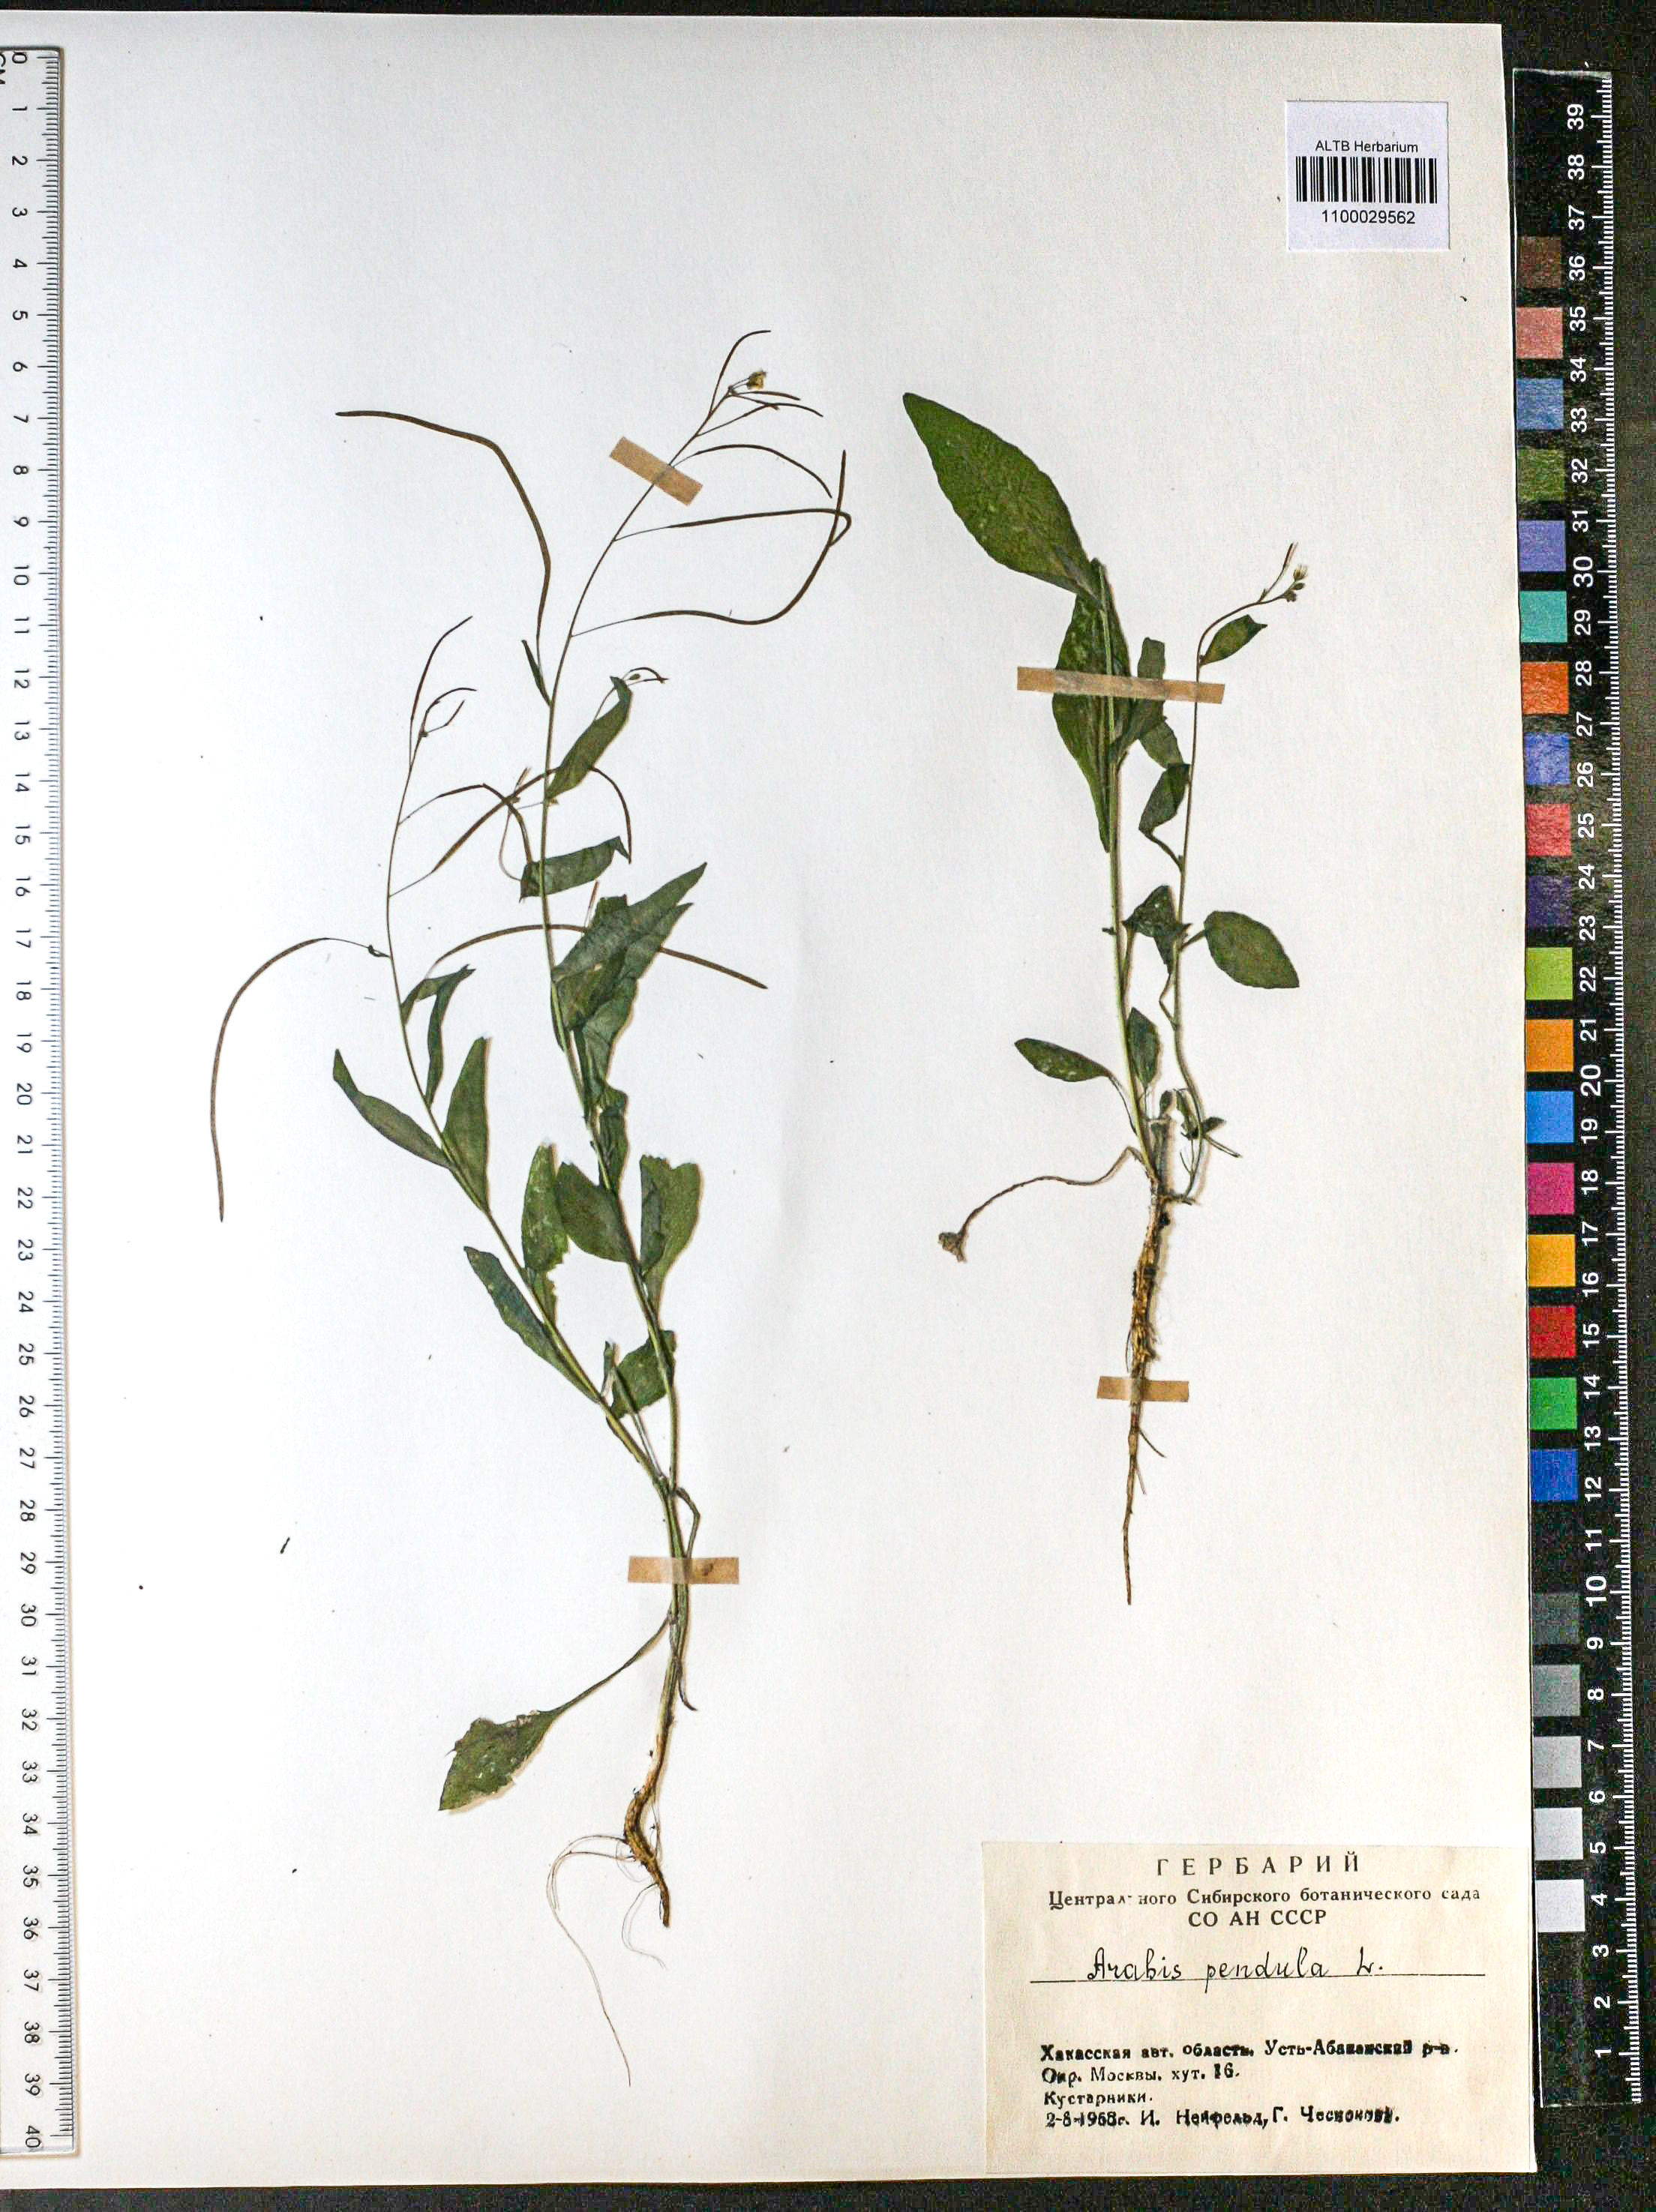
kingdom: Plantae
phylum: Tracheophyta
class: Magnoliopsida
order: Brassicales
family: Brassicaceae
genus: Catolobus
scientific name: Catolobus pendulus
